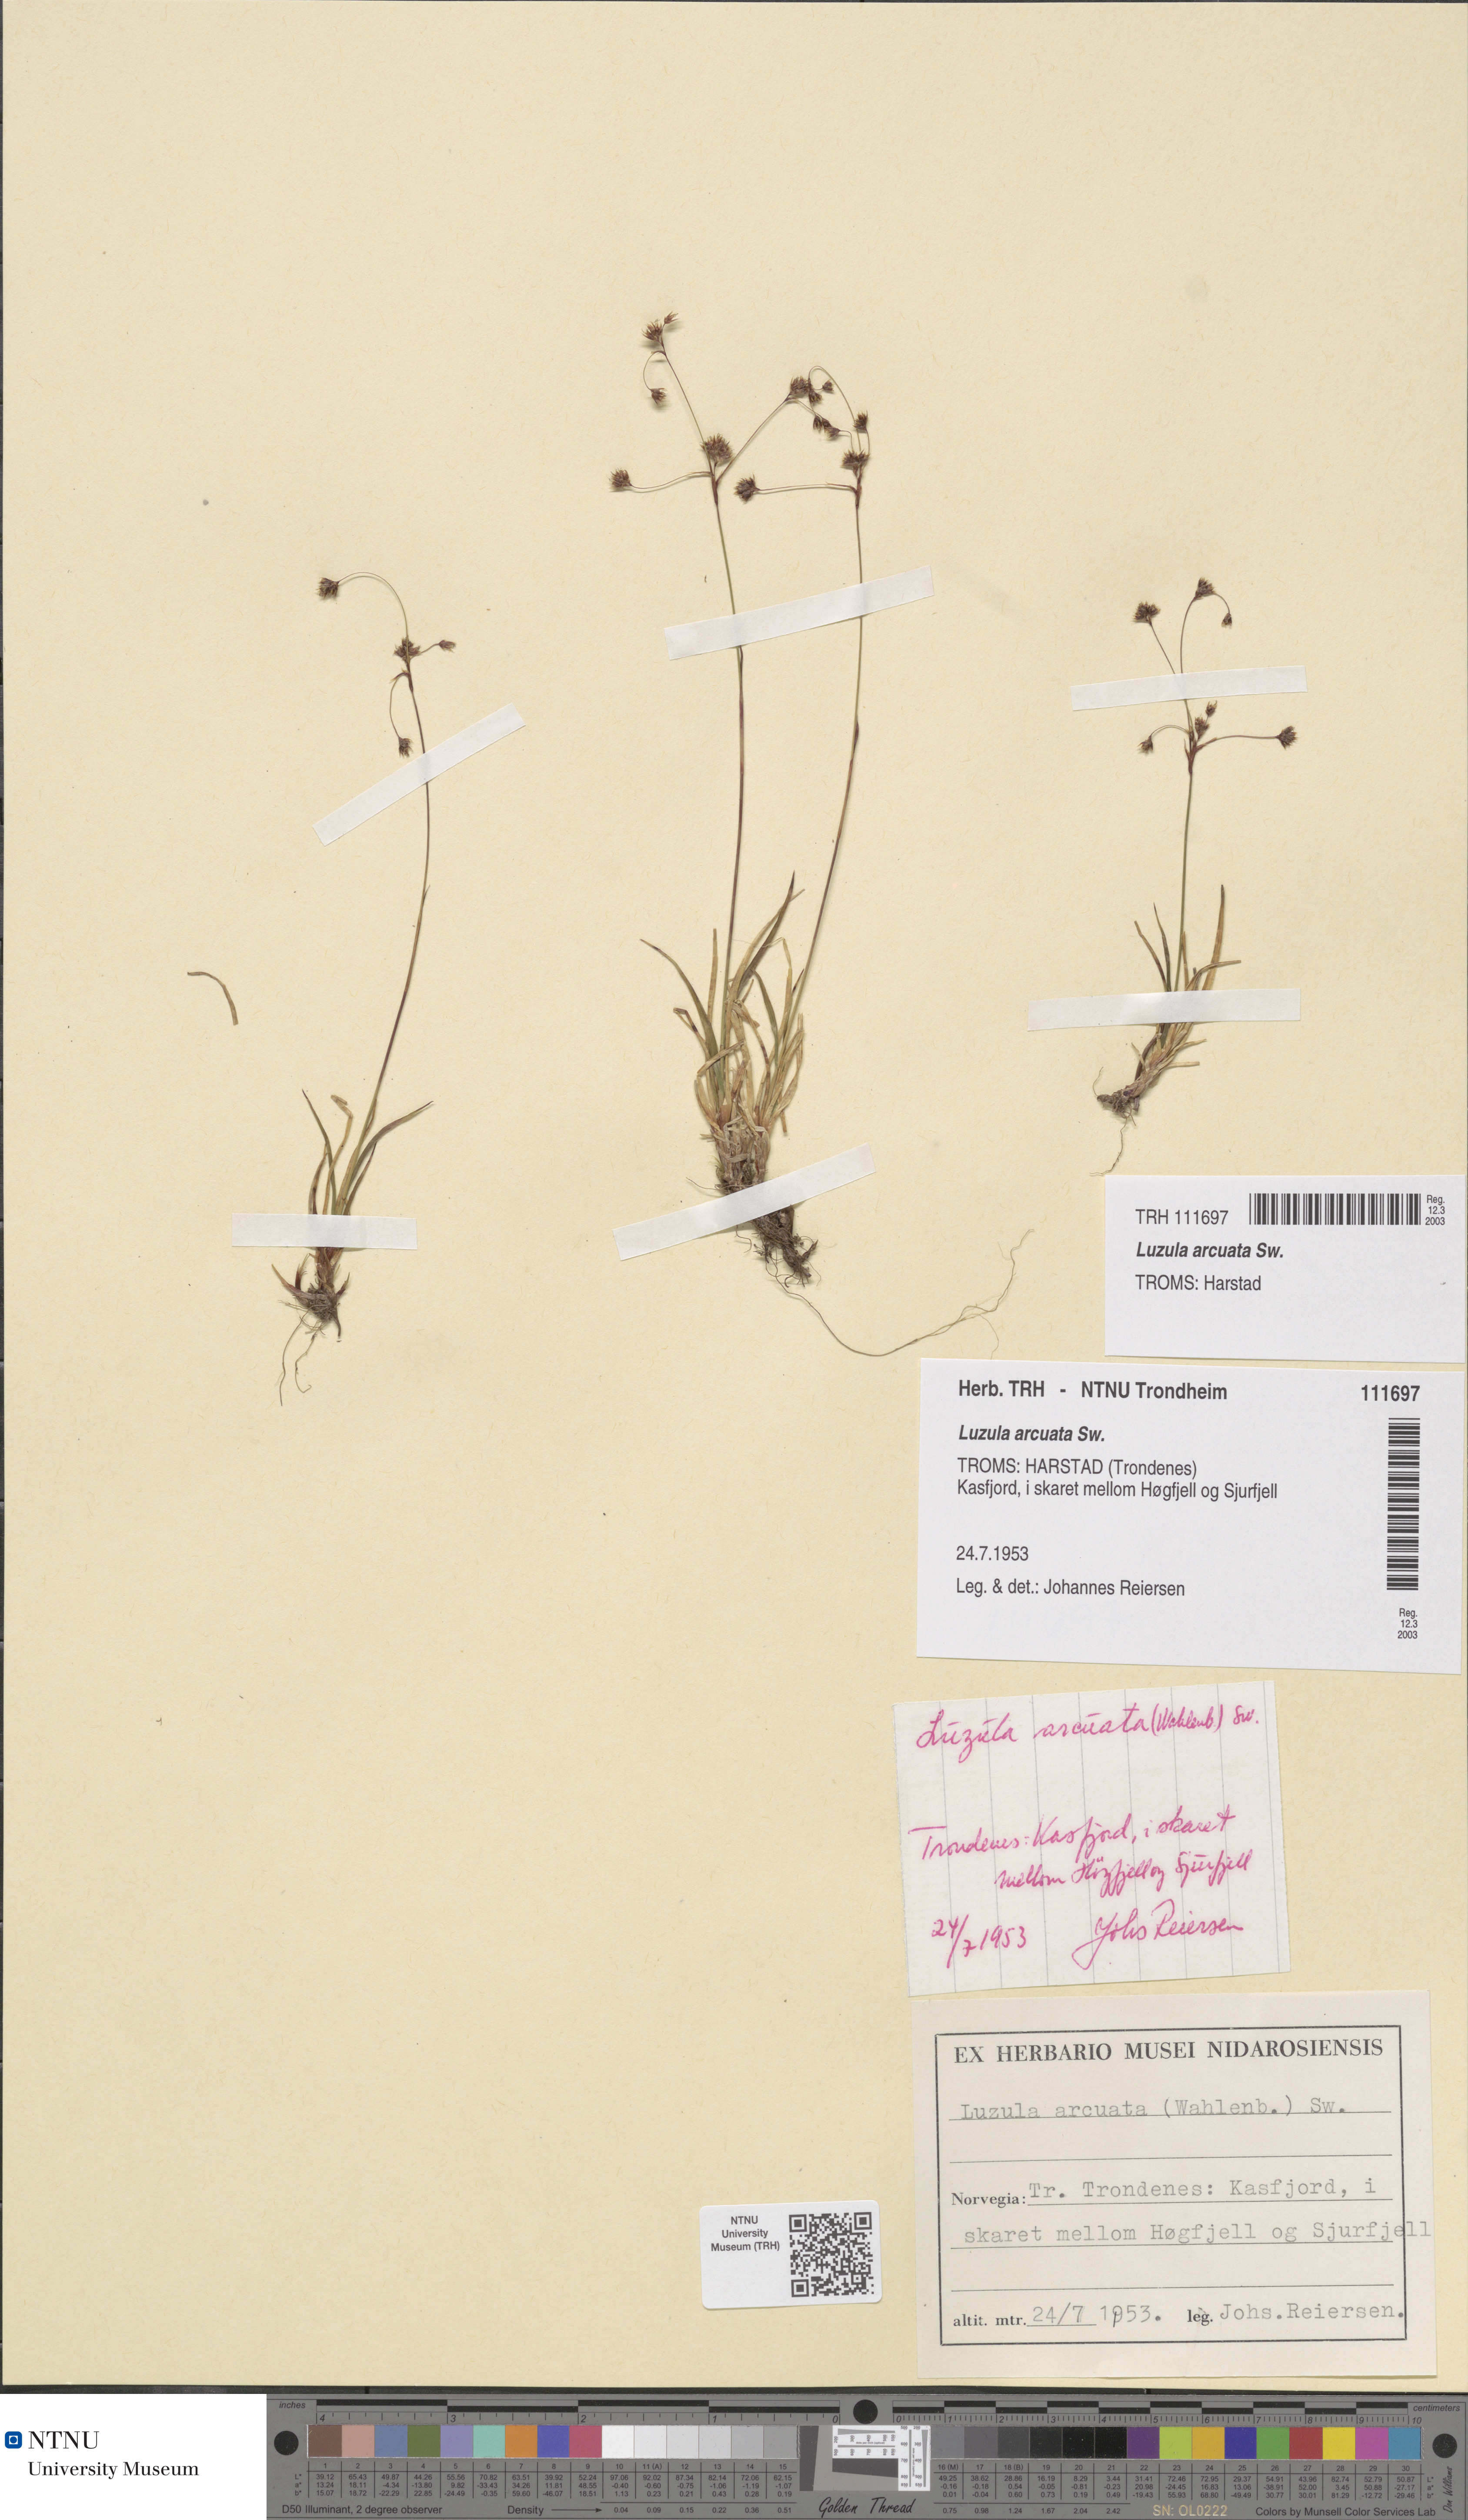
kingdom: Plantae
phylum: Tracheophyta
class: Liliopsida
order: Poales
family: Juncaceae
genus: Luzula
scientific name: Luzula arcuata
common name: Curved wood-rush
